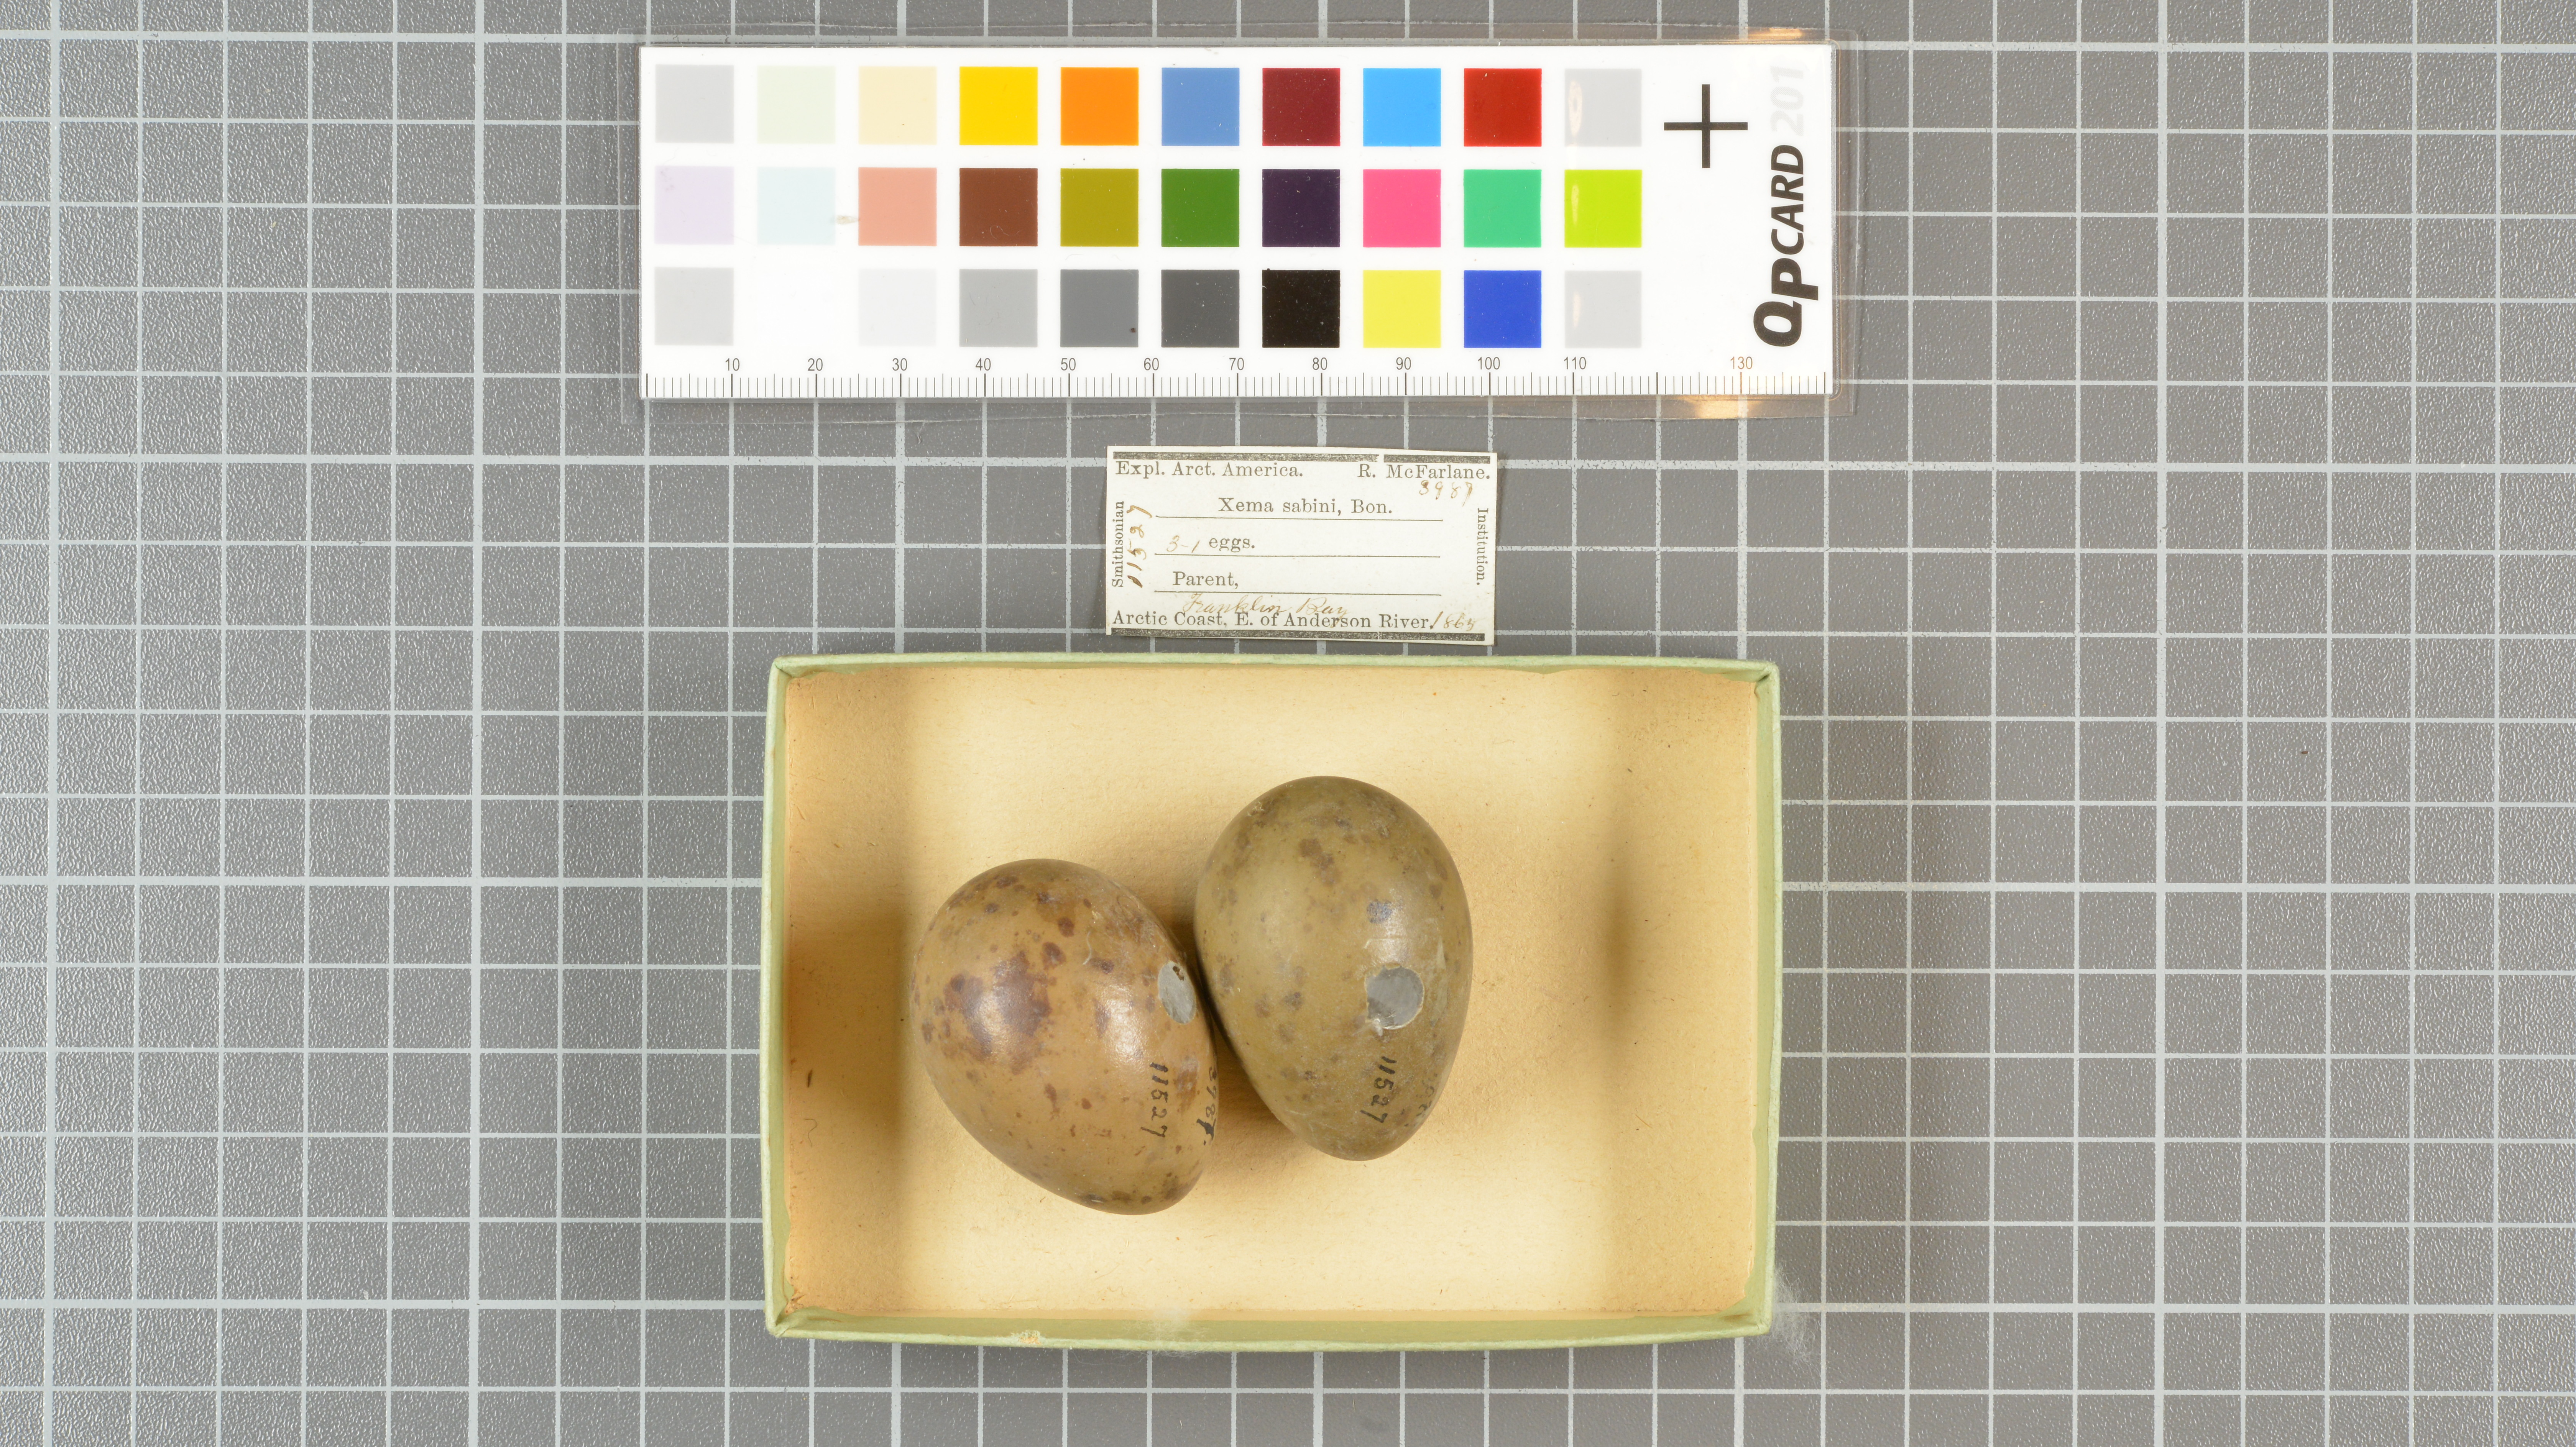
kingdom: Animalia
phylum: Chordata
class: Aves
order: Charadriiformes
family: Laridae
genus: Xema
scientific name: Xema sabini
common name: Sabine's gull
